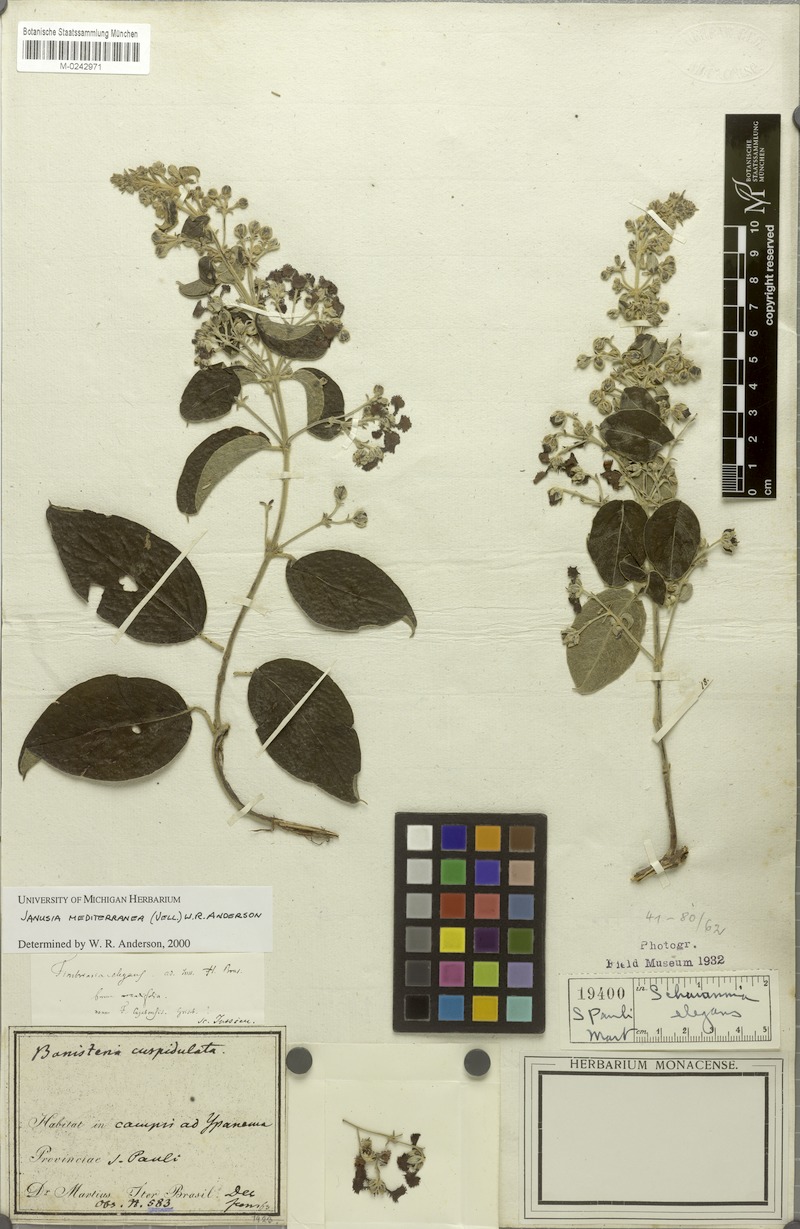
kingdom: Plantae
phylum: Tracheophyta
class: Magnoliopsida
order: Malpighiales
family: Malpighiaceae
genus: Janusia
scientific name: Janusia mediterranea
